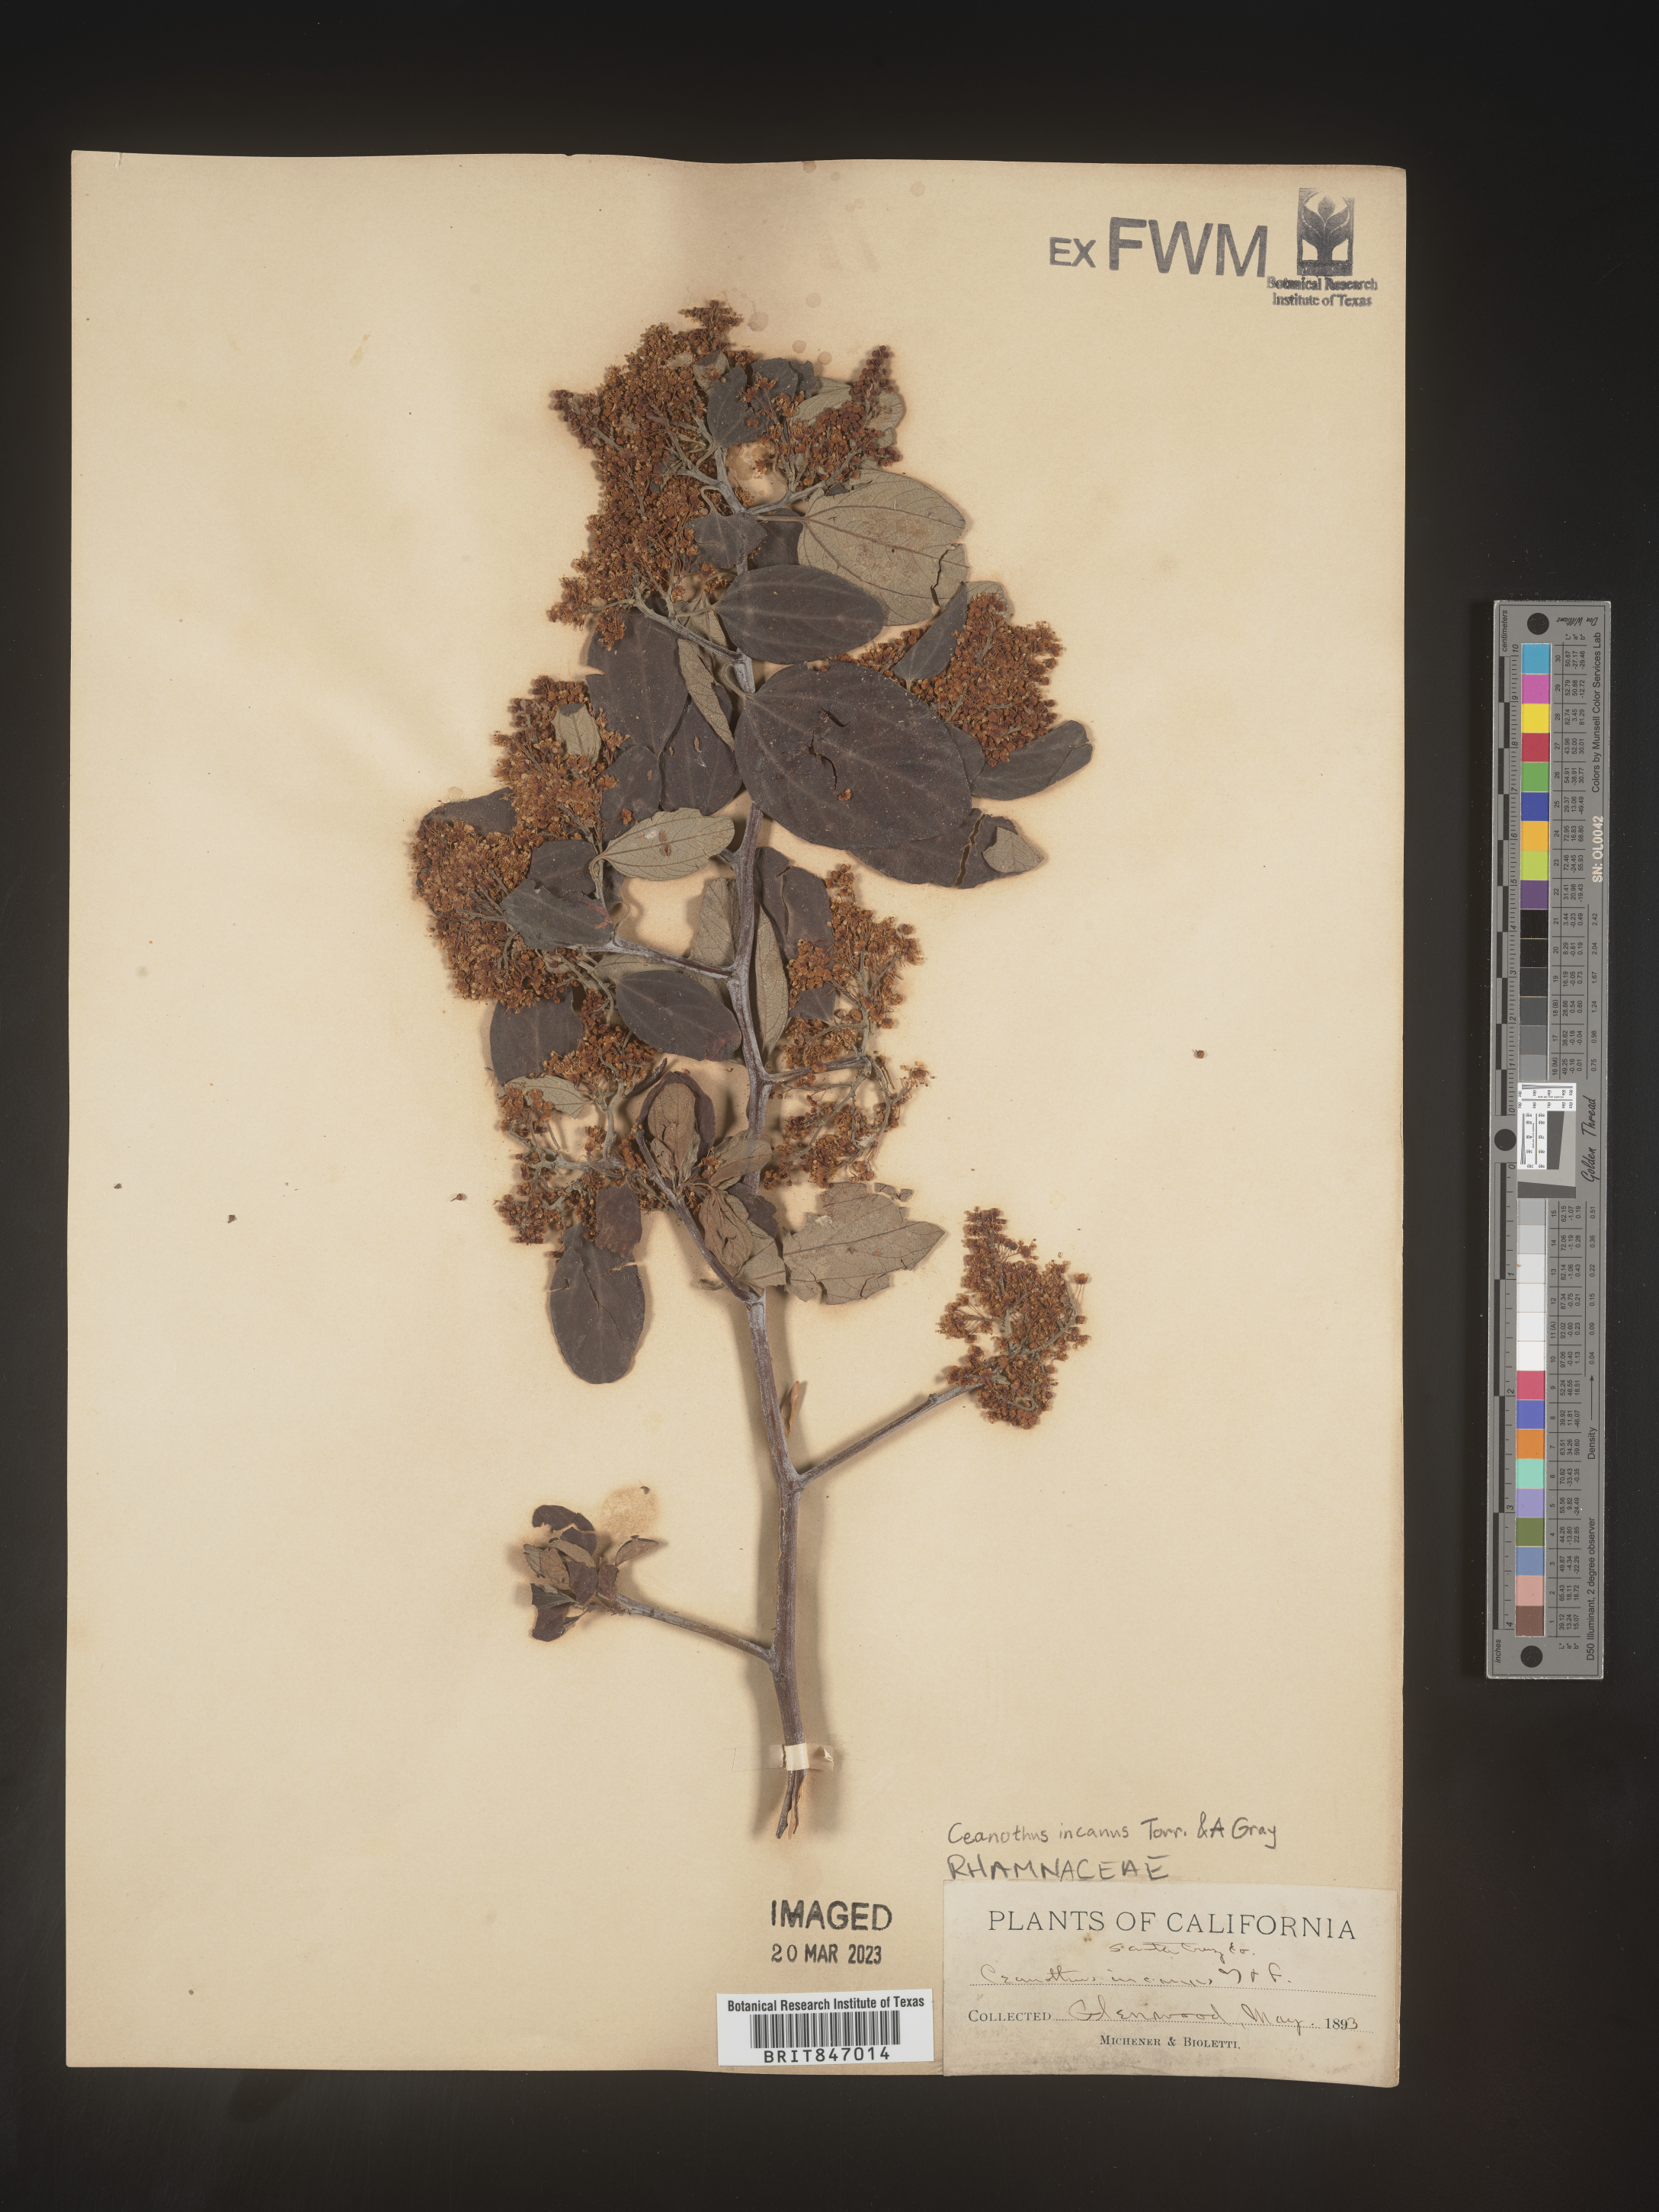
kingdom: Plantae
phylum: Tracheophyta
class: Magnoliopsida
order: Rosales
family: Rhamnaceae
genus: Ceanothus
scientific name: Ceanothus
